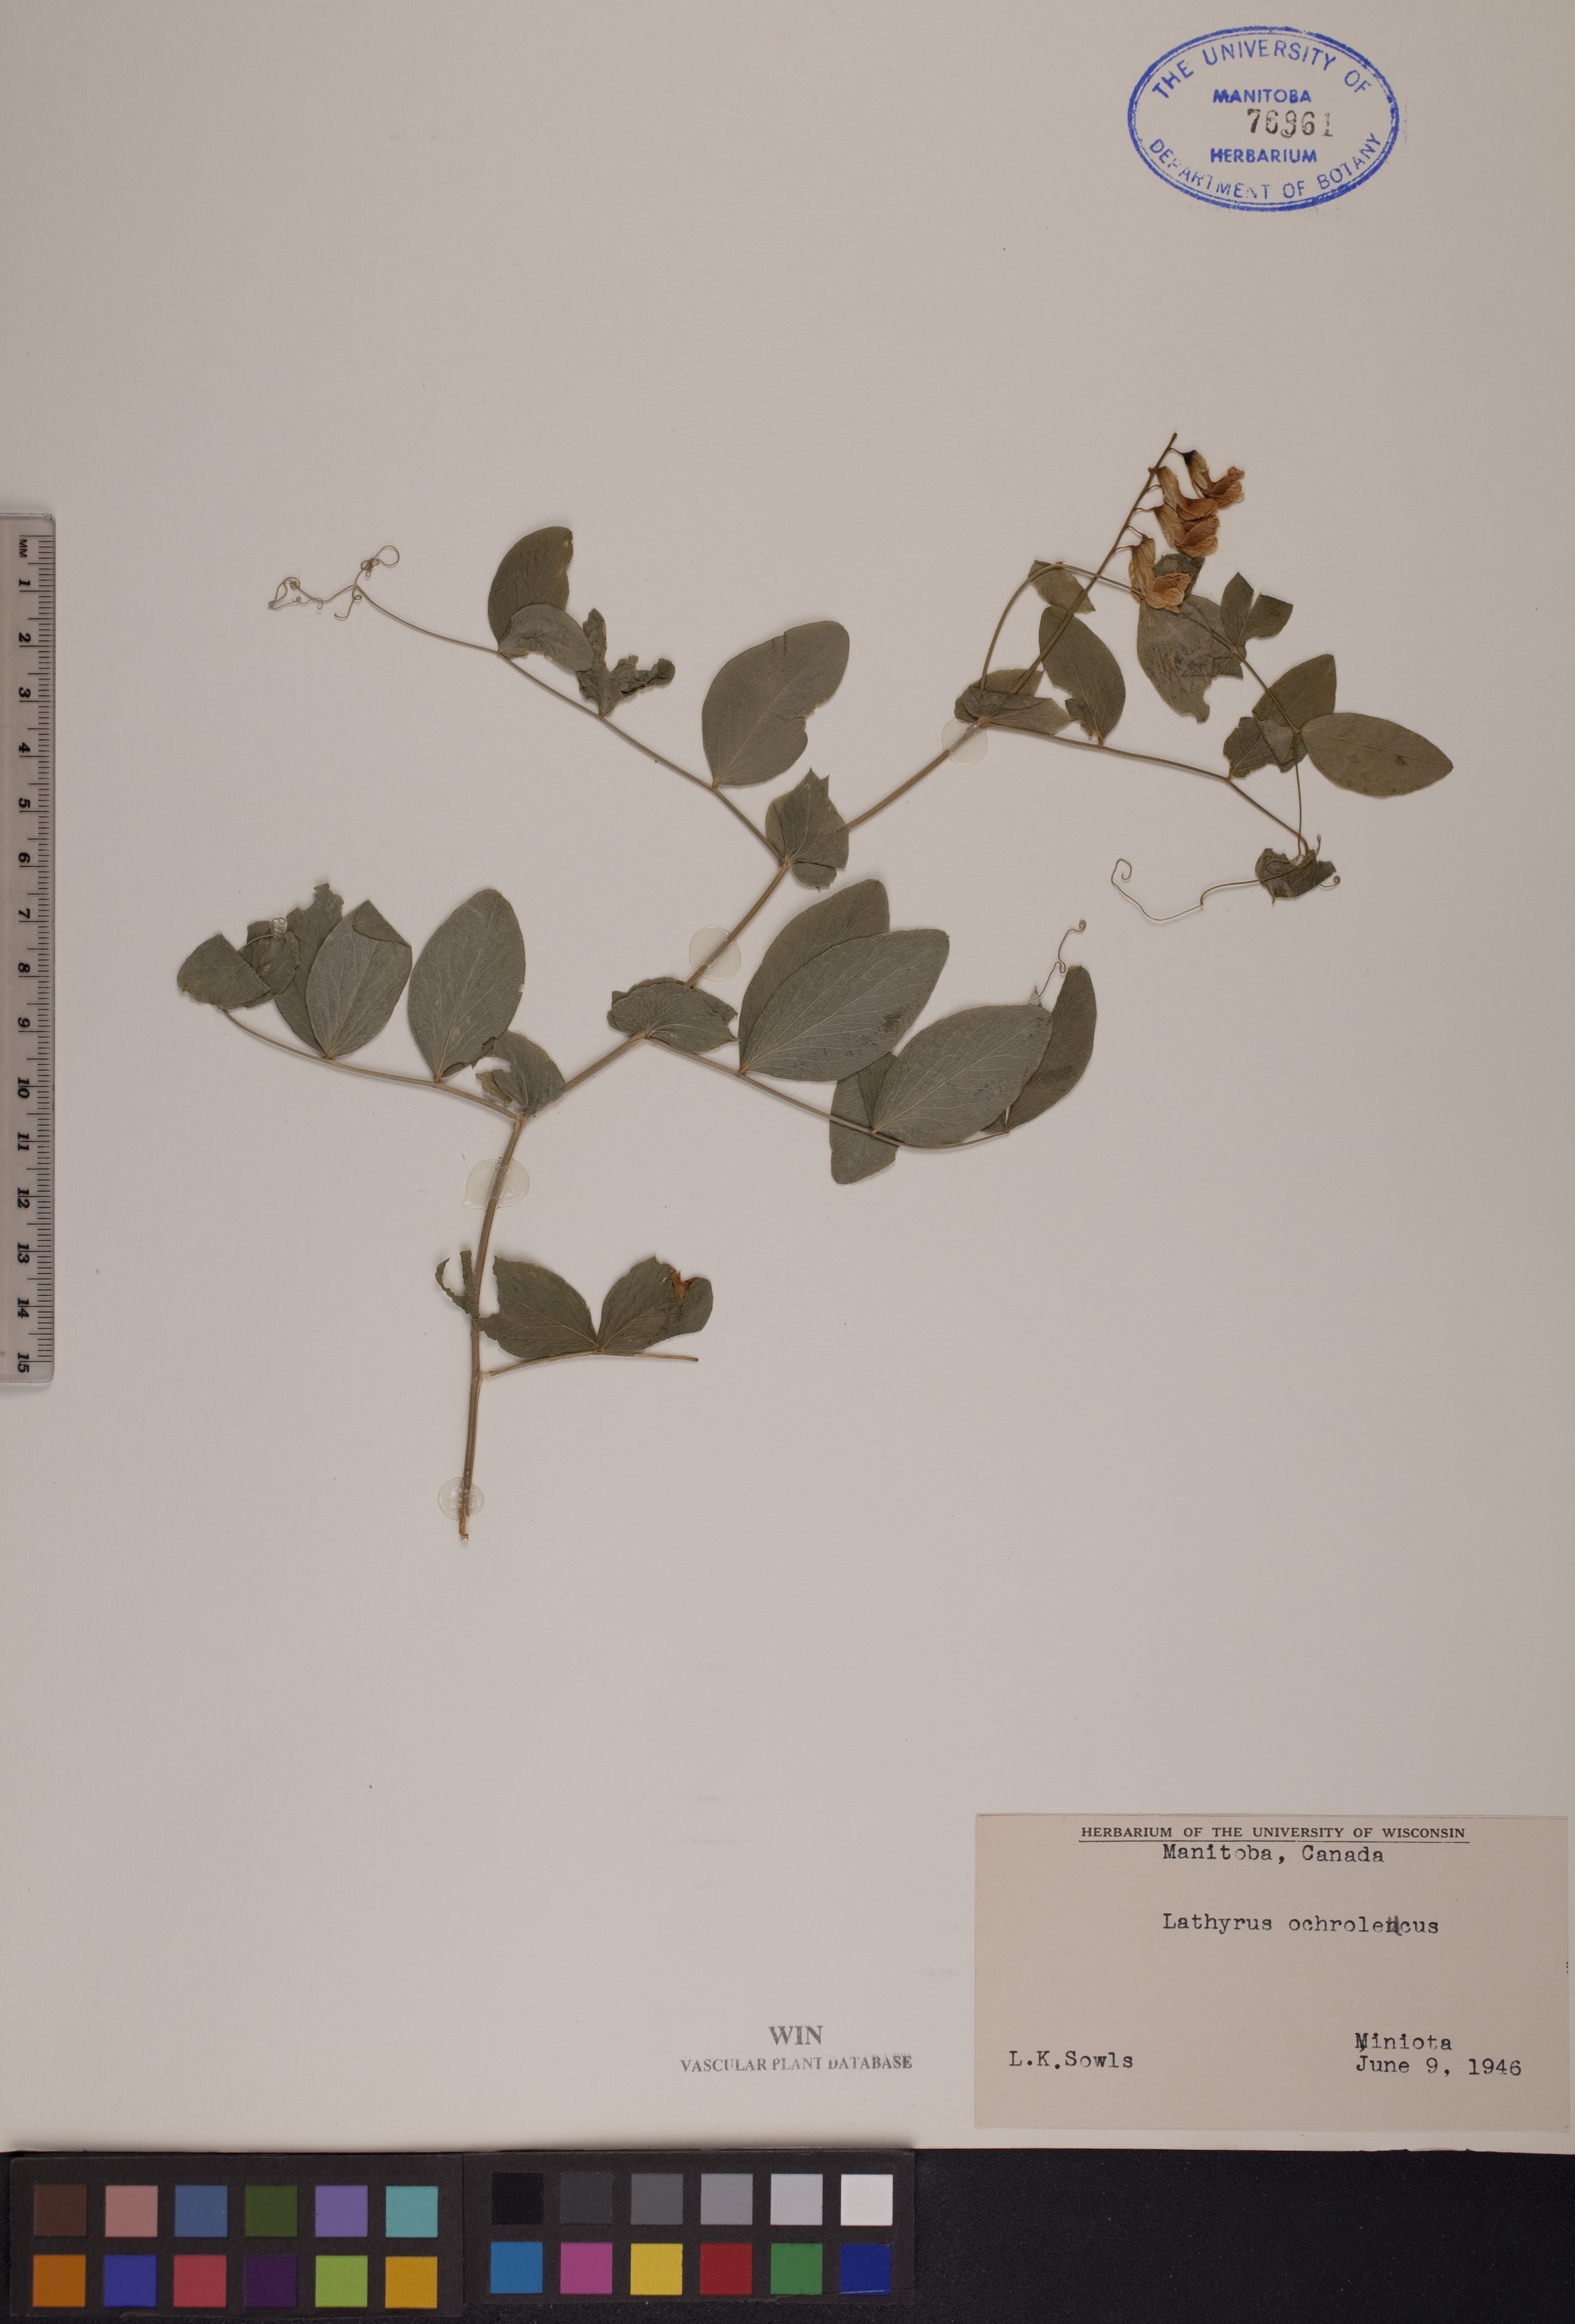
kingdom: Plantae
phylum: Tracheophyta
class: Magnoliopsida
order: Fabales
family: Fabaceae
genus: Lathyrus
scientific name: Lathyrus ochroleucus
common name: Pale vetchling
